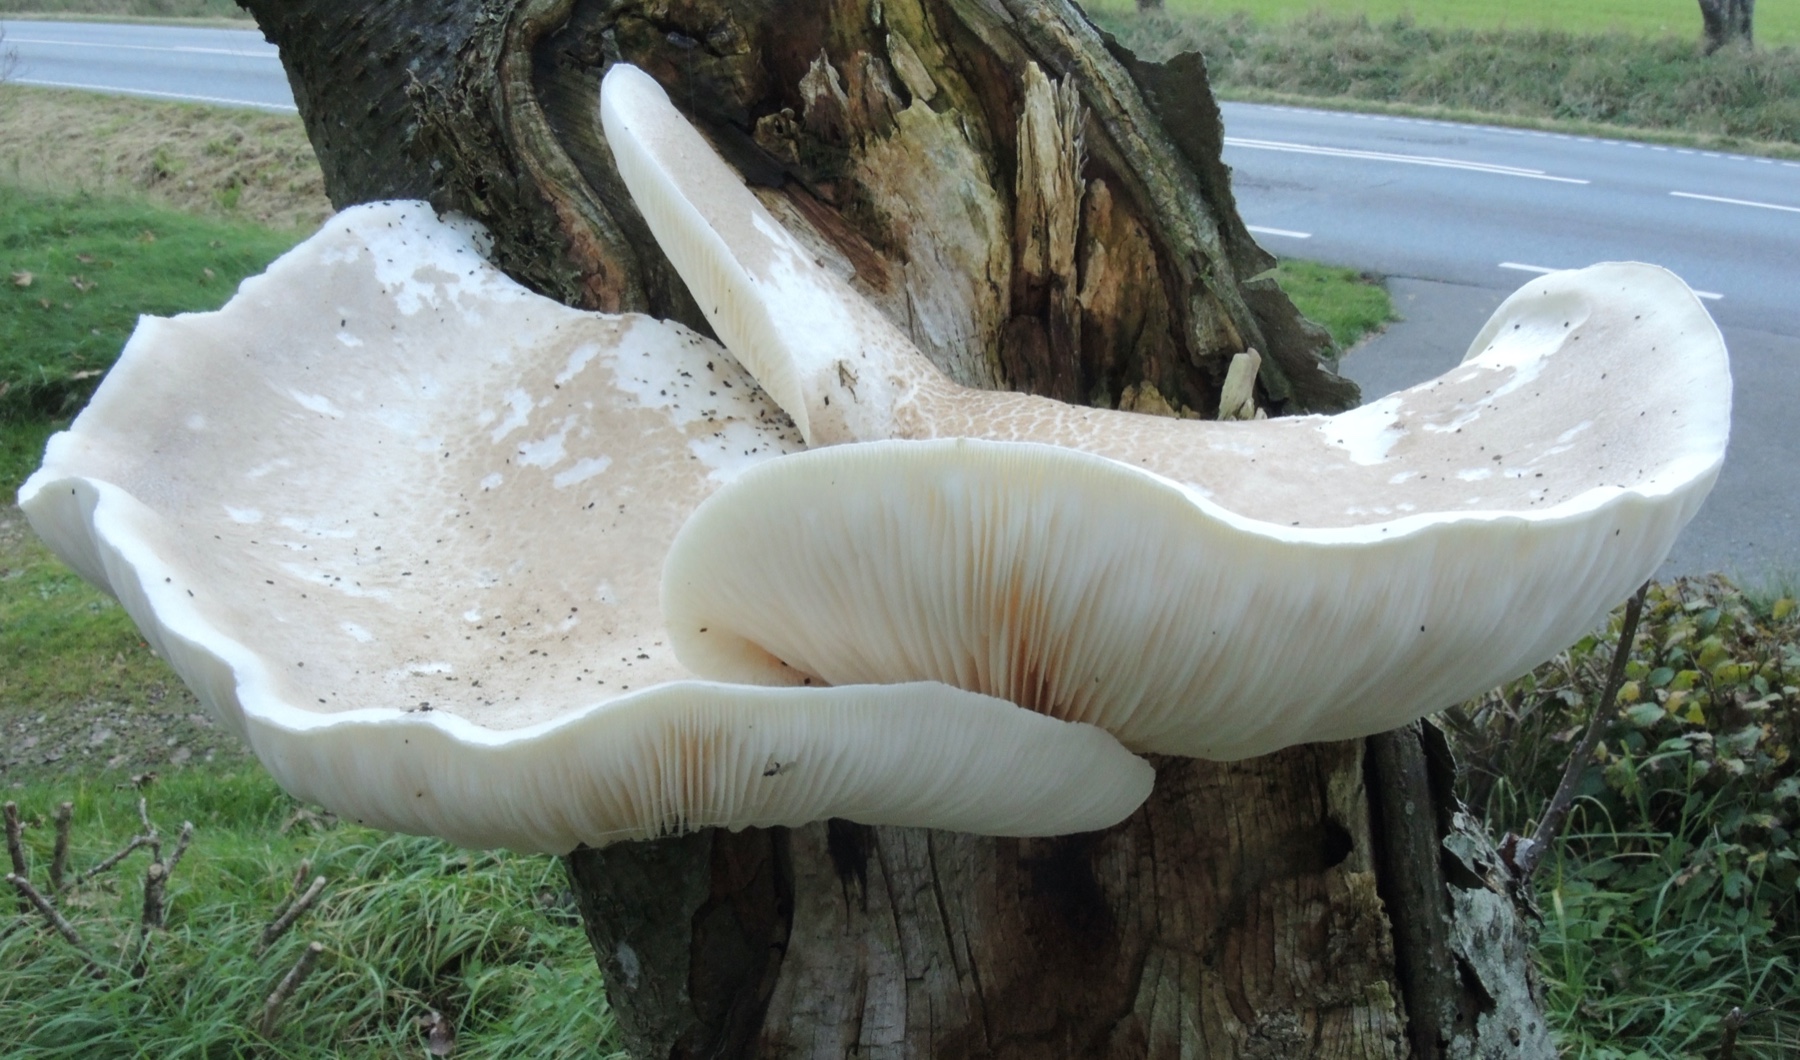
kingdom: Fungi
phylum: Basidiomycota
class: Agaricomycetes
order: Agaricales
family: Pleurotaceae
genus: Pleurotus
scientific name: Pleurotus dryinus
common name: korkagtig østershat
